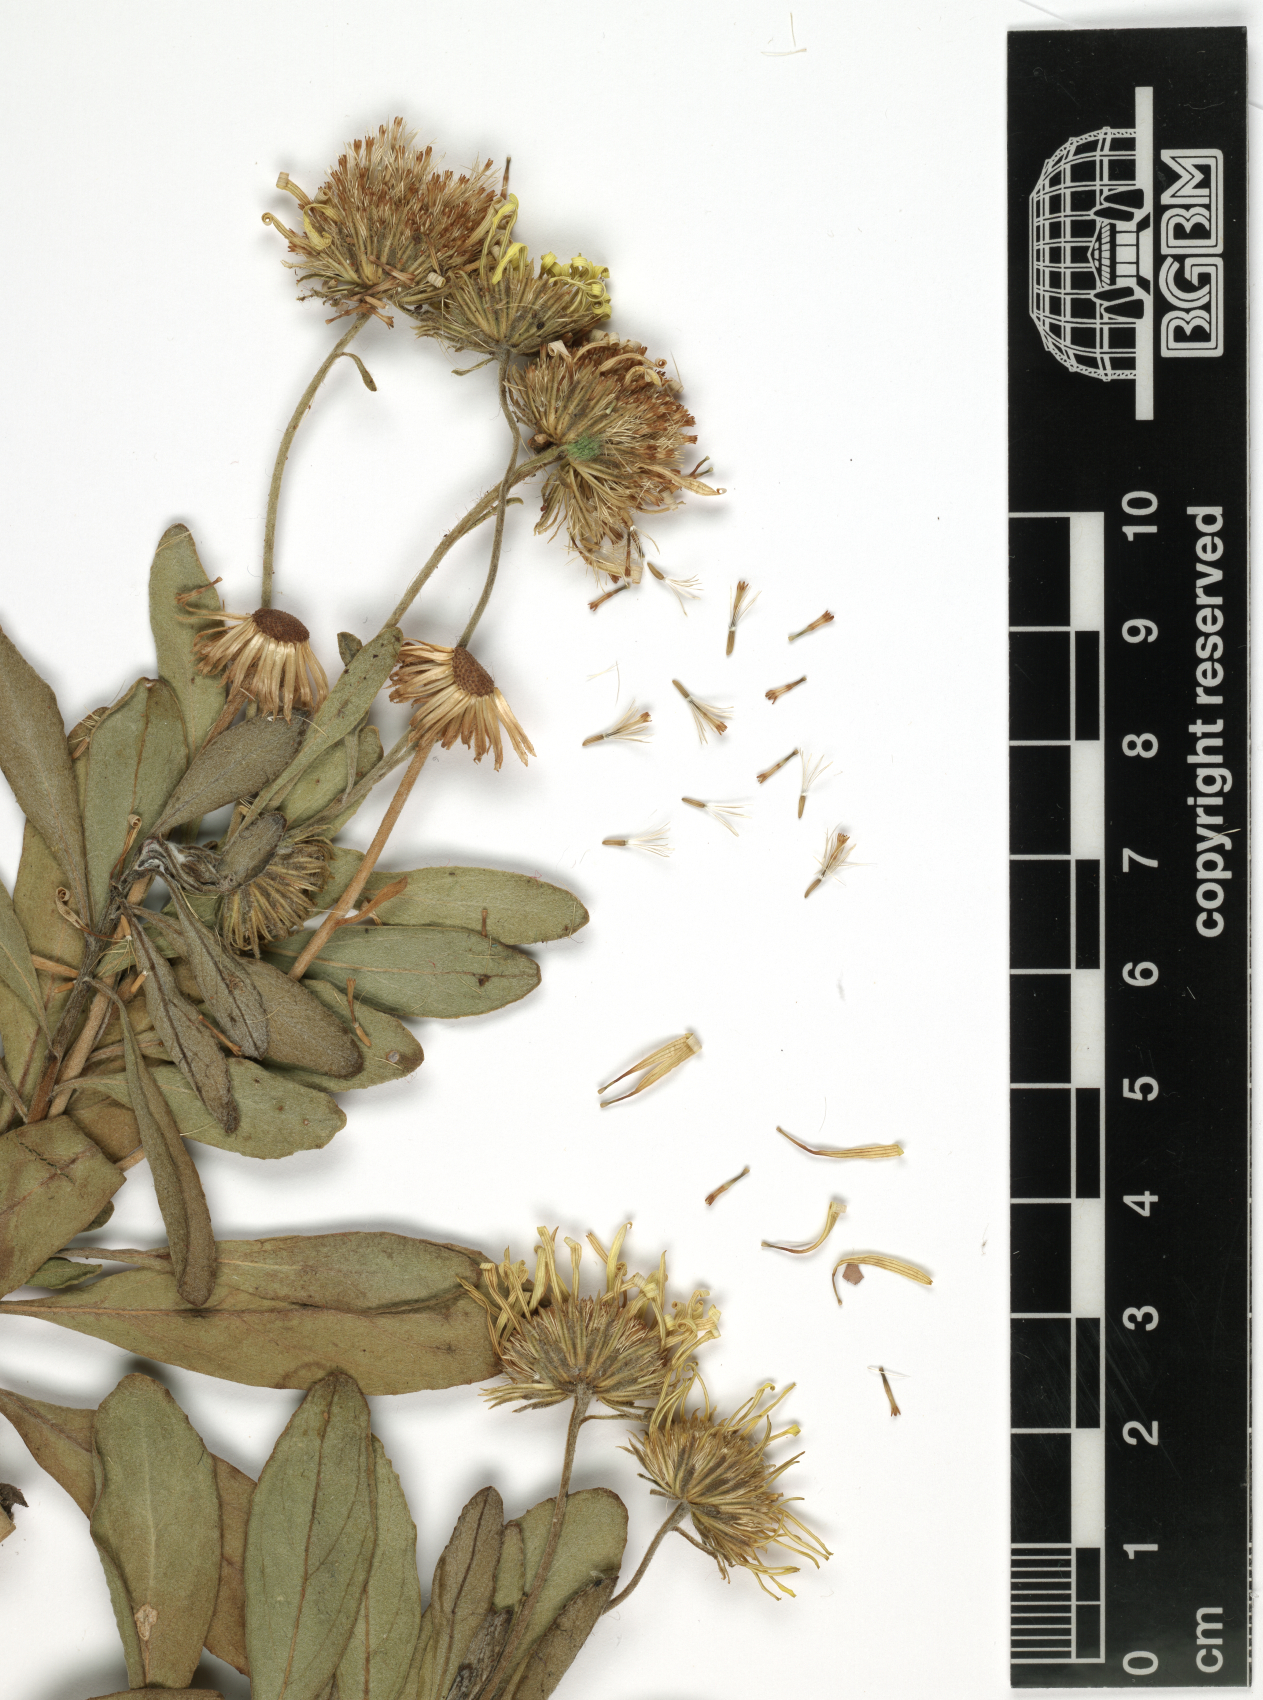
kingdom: Plantae
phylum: Tracheophyta
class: Magnoliopsida
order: Asterales
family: Asteraceae
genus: Pulicaria
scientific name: Pulicaria elegans
